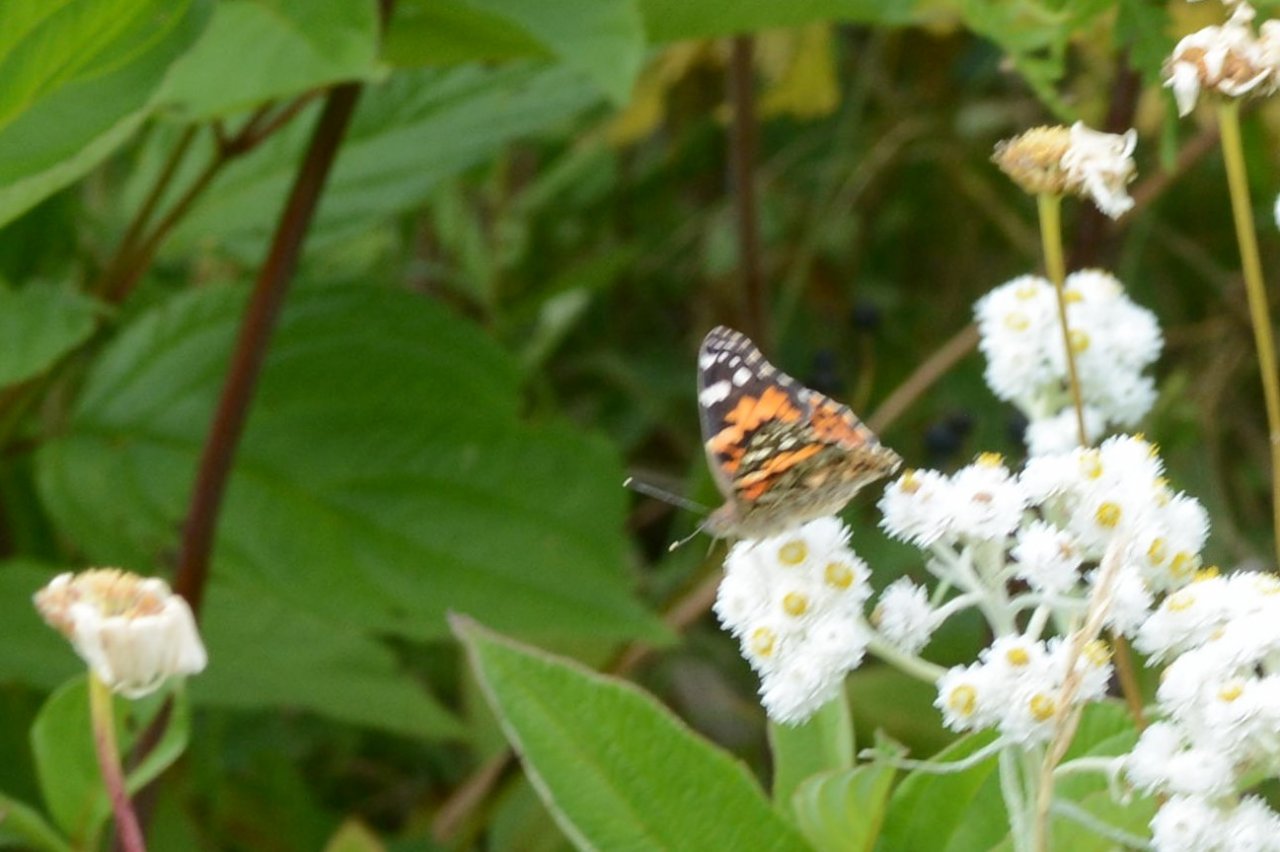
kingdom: Animalia
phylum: Arthropoda
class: Insecta
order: Lepidoptera
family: Nymphalidae
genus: Vanessa
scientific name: Vanessa cardui
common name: Painted Lady
